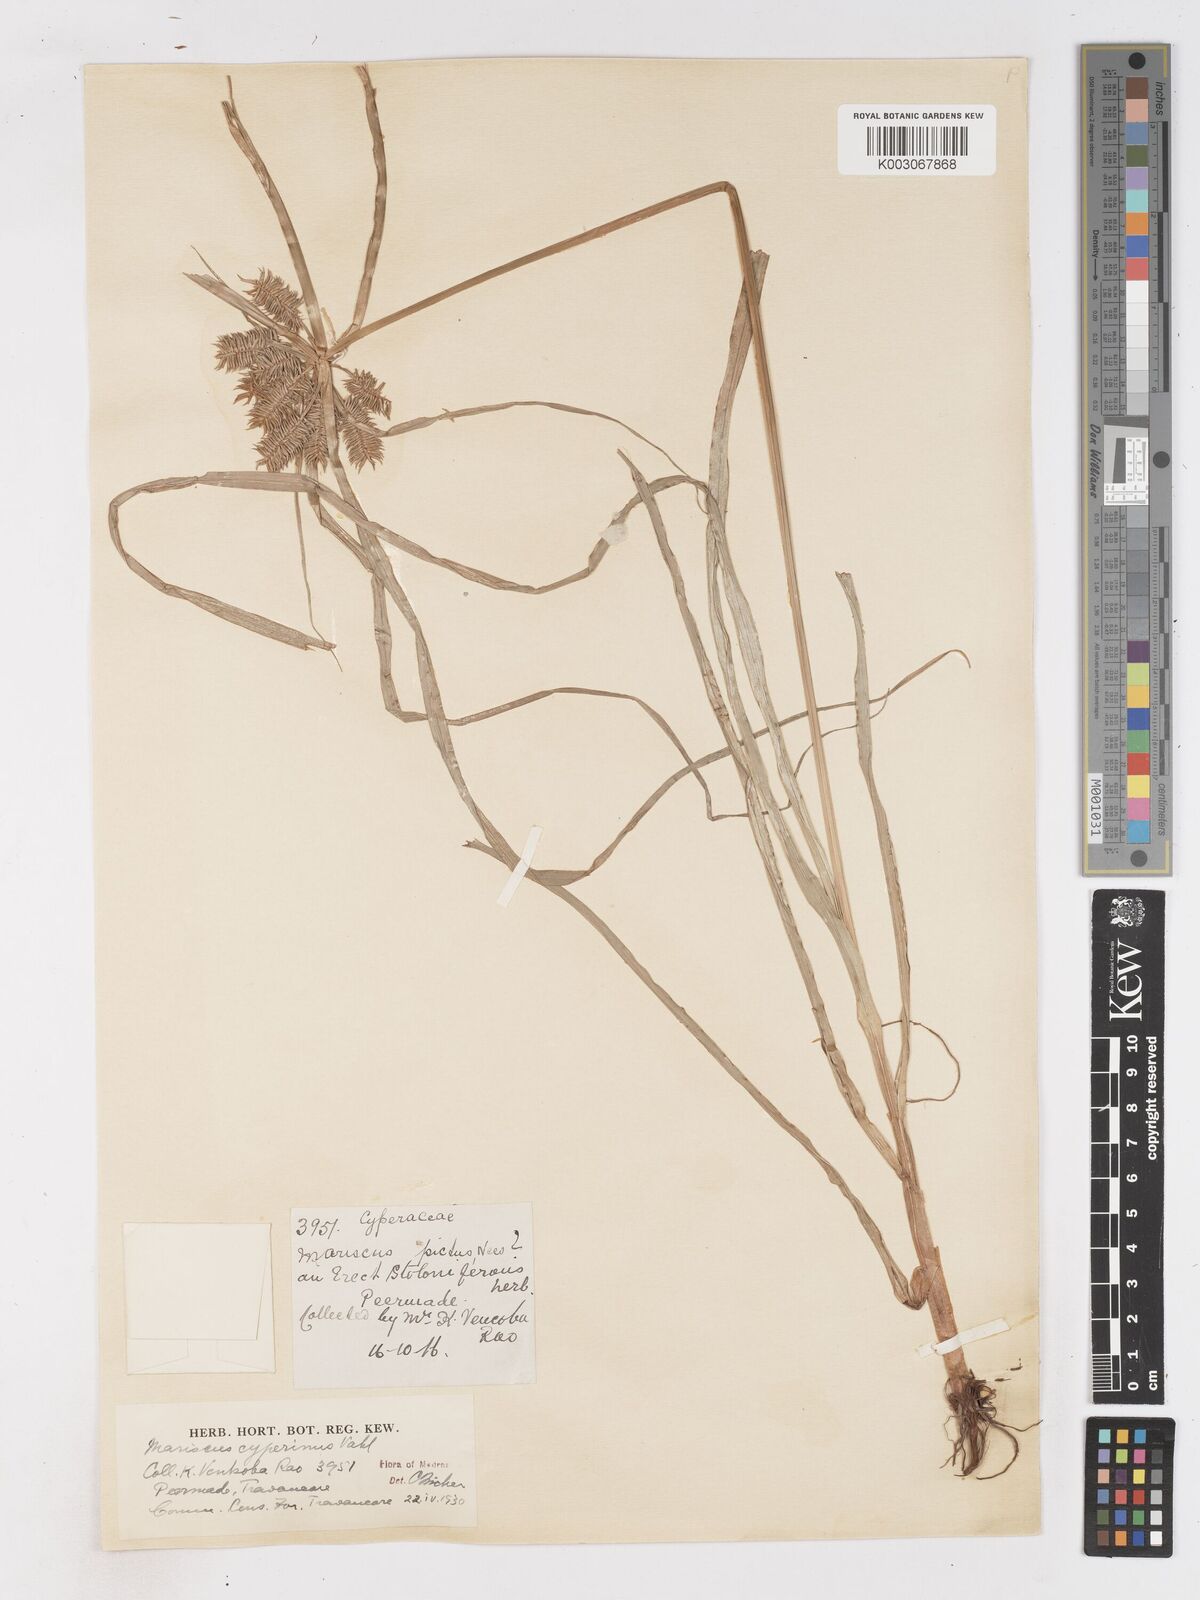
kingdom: Plantae
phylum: Tracheophyta
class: Liliopsida
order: Poales
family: Cyperaceae
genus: Cyperus
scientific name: Cyperus cyperinus
